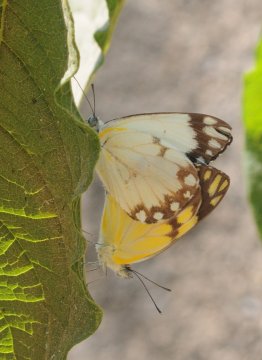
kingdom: Animalia
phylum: Arthropoda
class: Insecta
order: Lepidoptera
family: Pieridae
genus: Belenois
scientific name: Belenois creona
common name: African Caper
